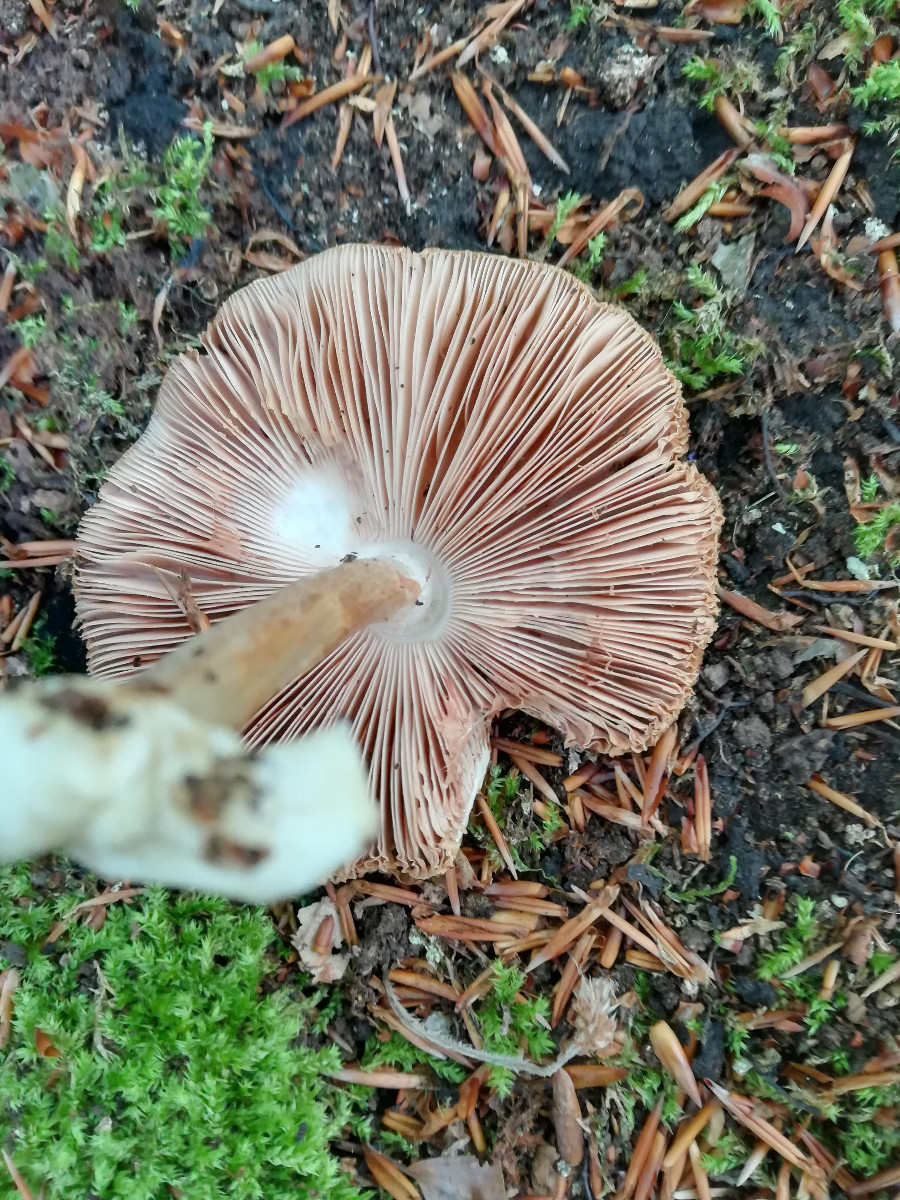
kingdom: Fungi
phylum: Basidiomycota
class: Agaricomycetes
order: Agaricales
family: Pluteaceae
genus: Pluteus
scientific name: Pluteus cervinus
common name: sodfarvet skærmhat
